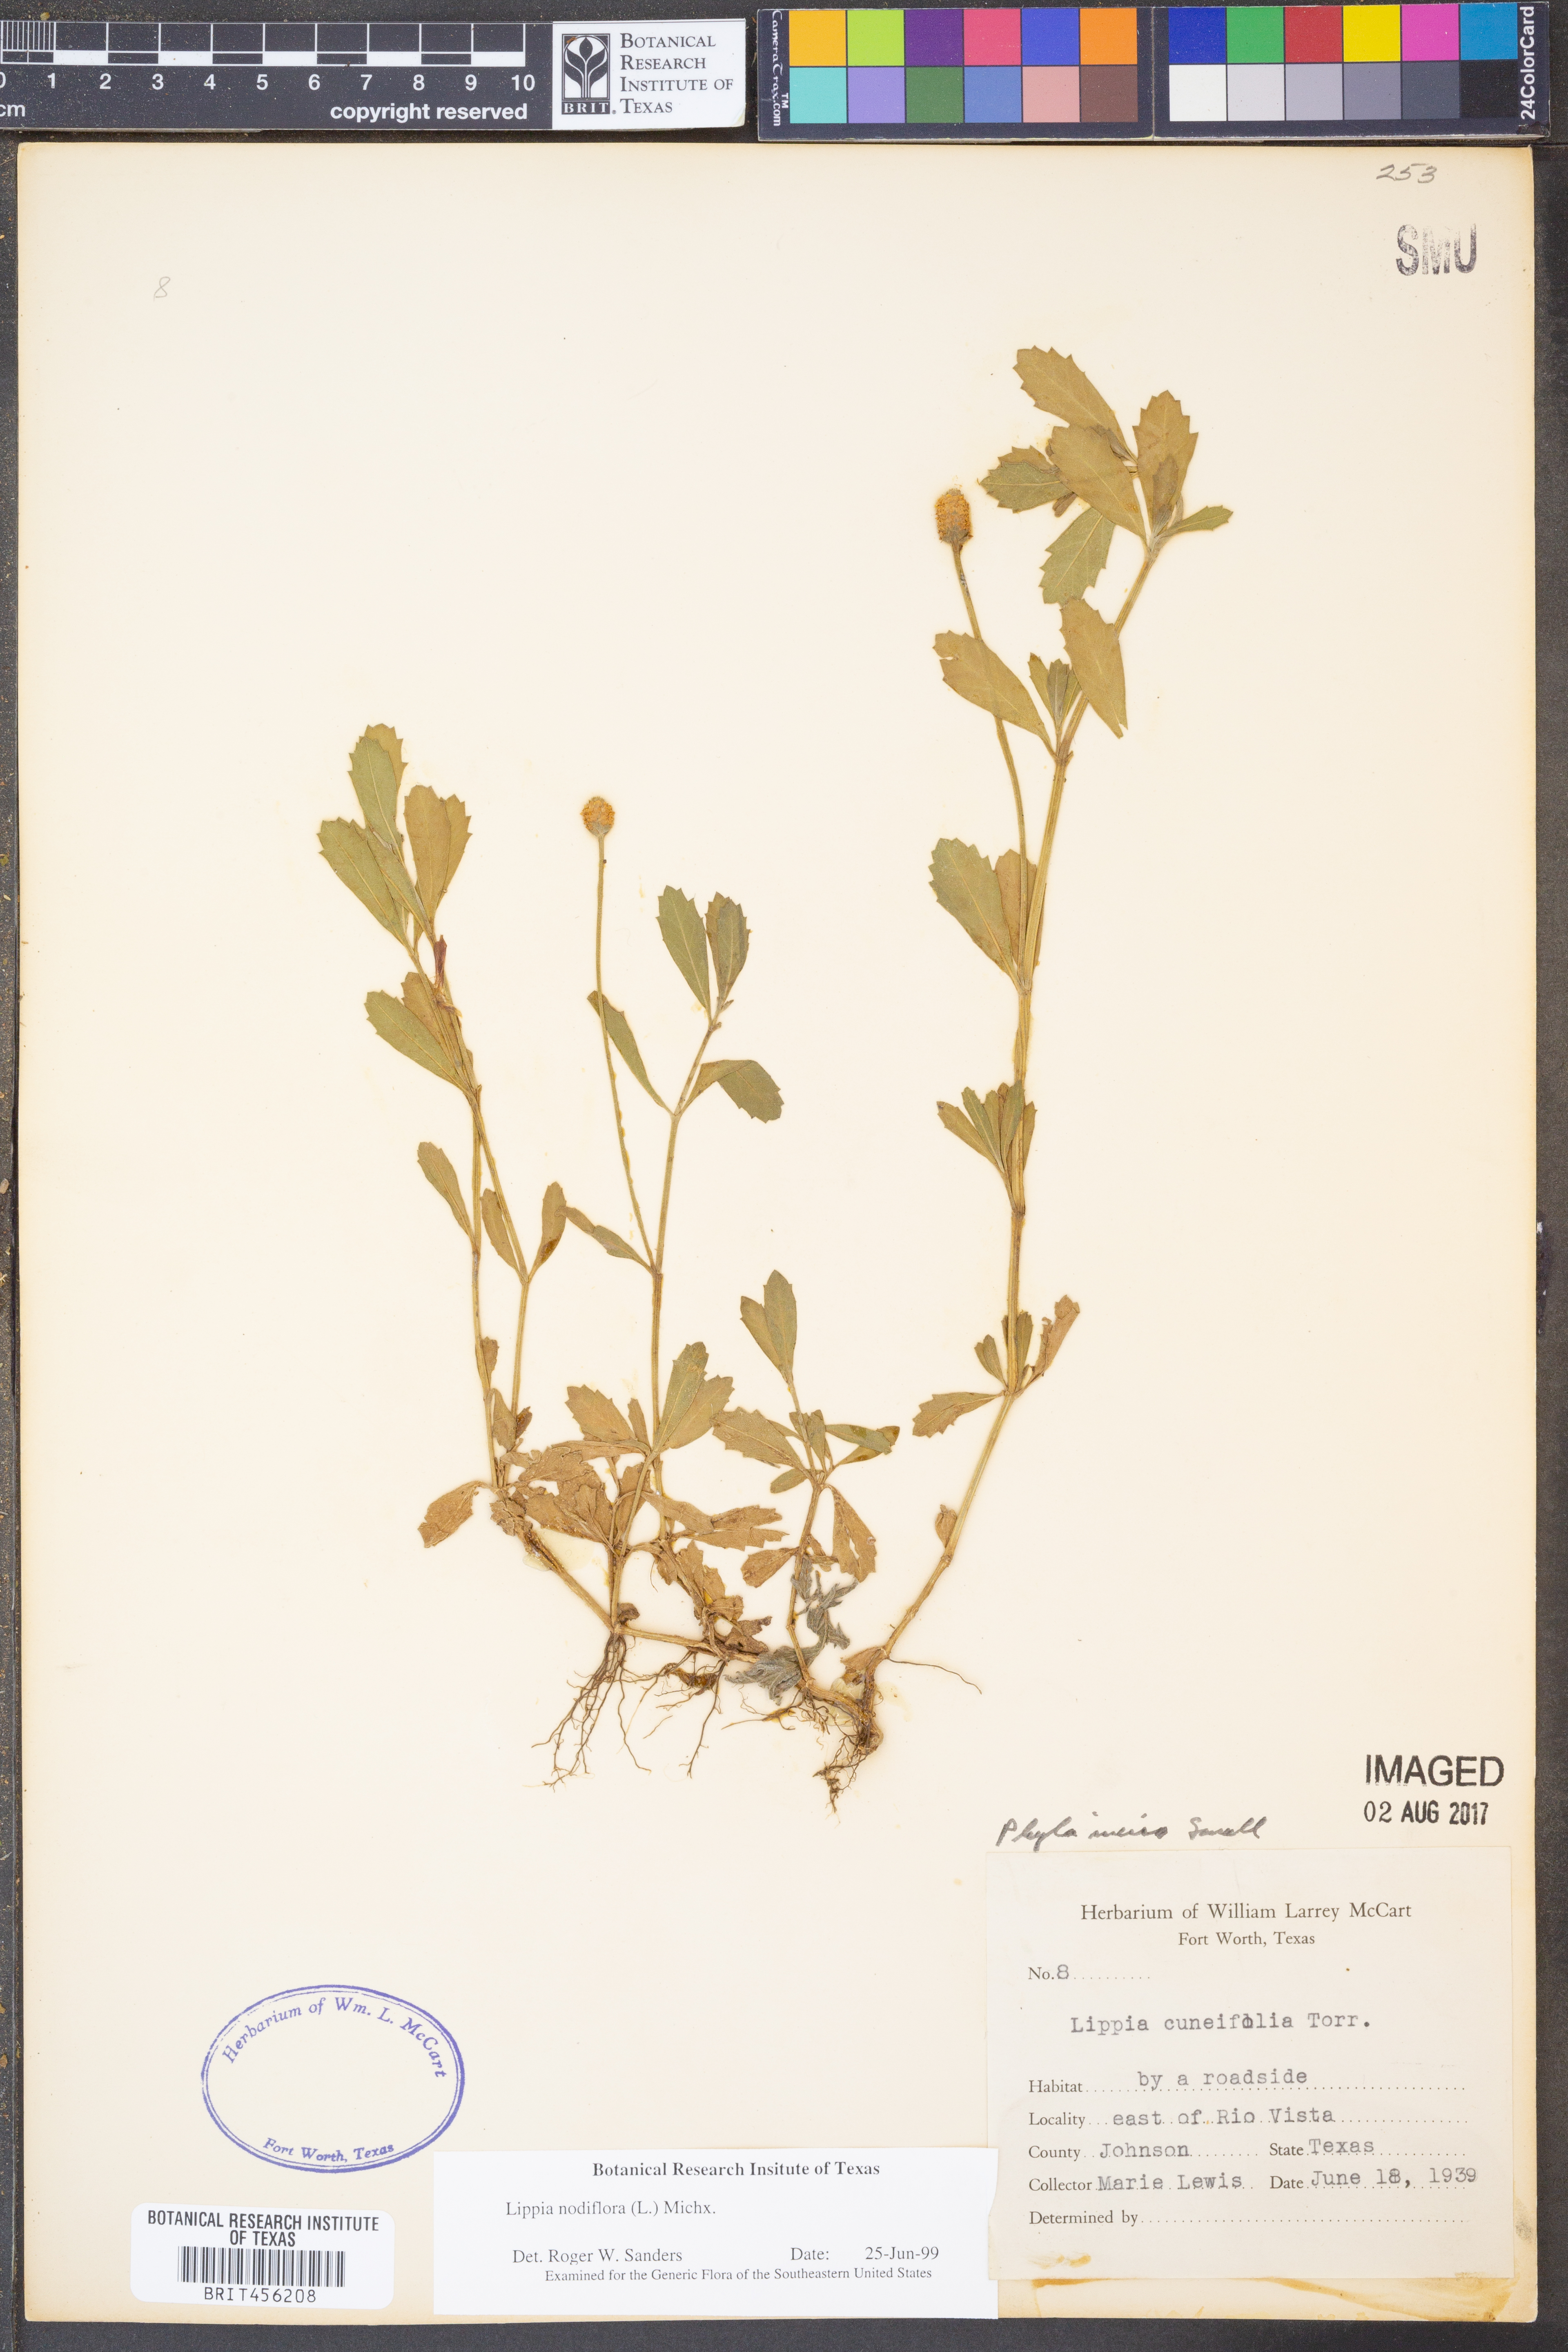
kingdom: Plantae
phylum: Tracheophyta
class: Magnoliopsida
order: Lamiales
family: Verbenaceae
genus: Phyla
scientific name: Phyla nodiflora
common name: Frogfruit
